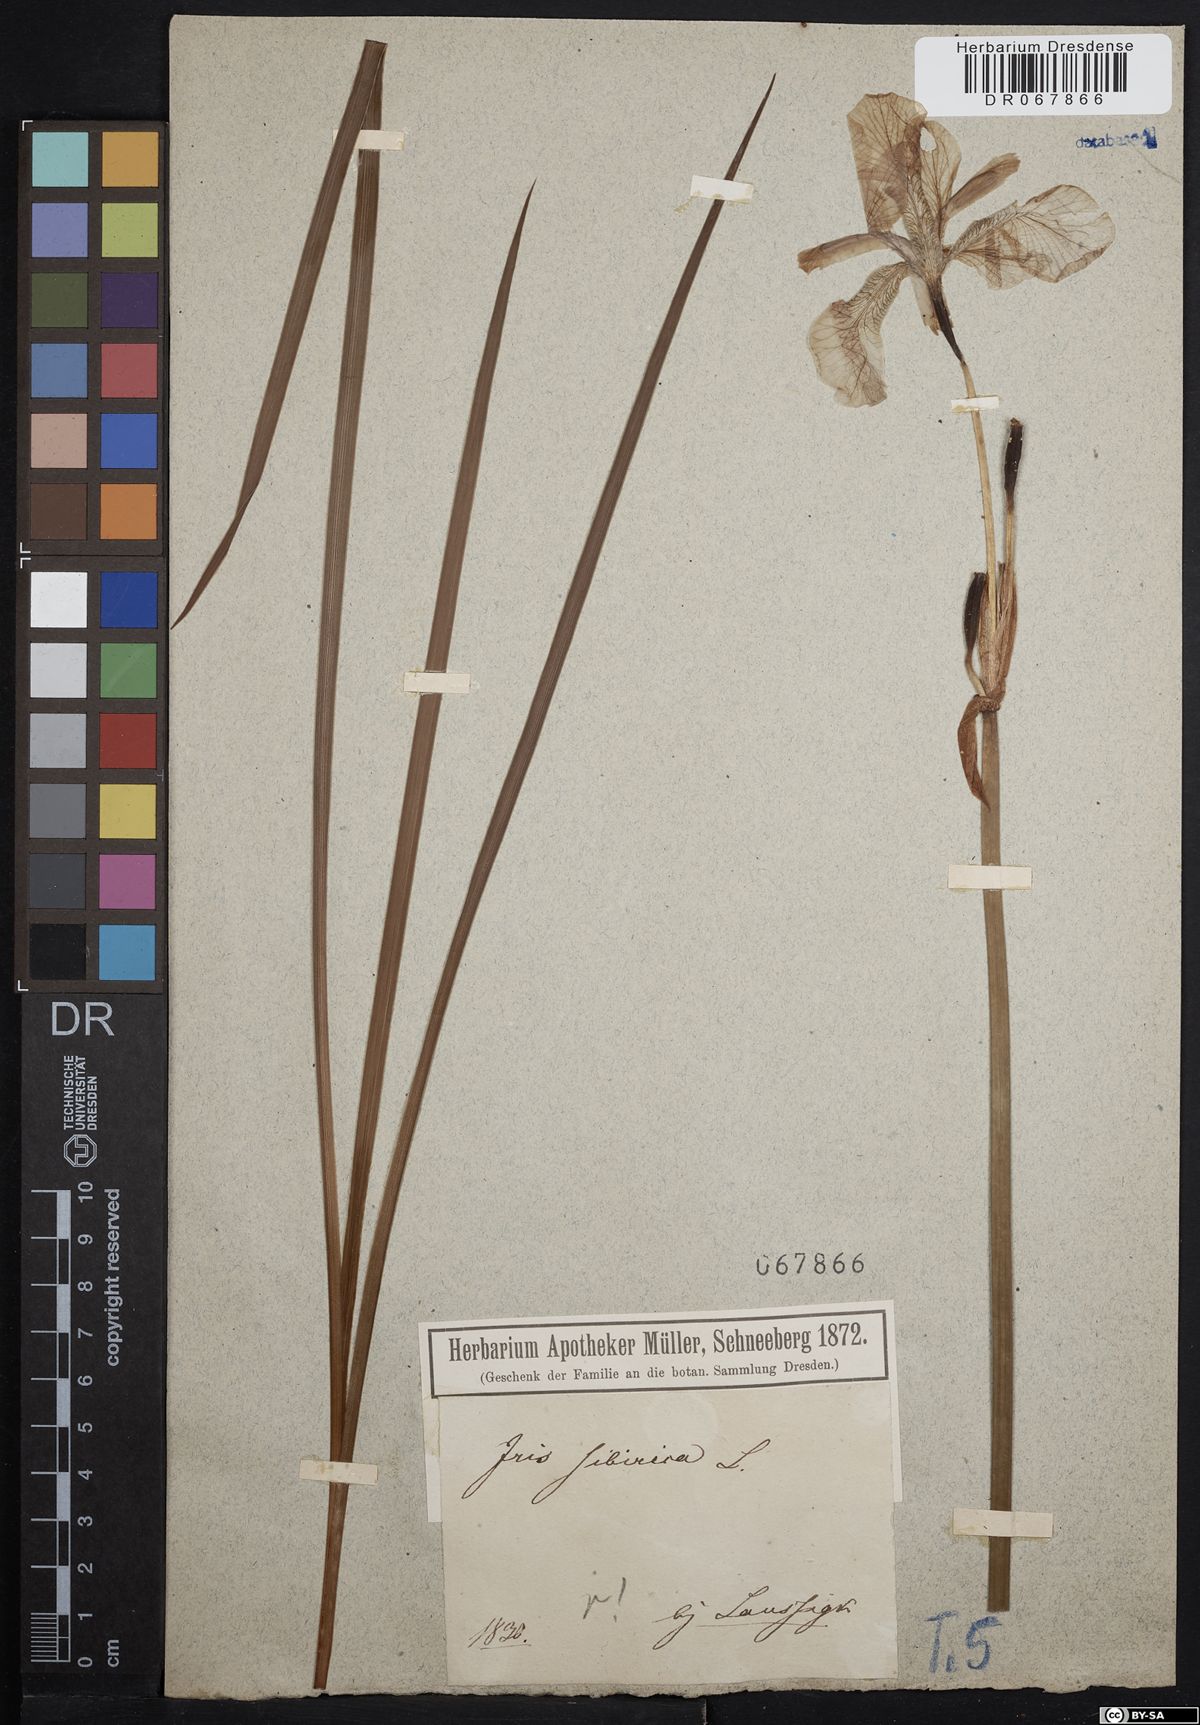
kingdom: Plantae
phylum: Tracheophyta
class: Liliopsida
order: Asparagales
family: Iridaceae
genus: Iris
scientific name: Iris sibirica
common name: Siberian iris
